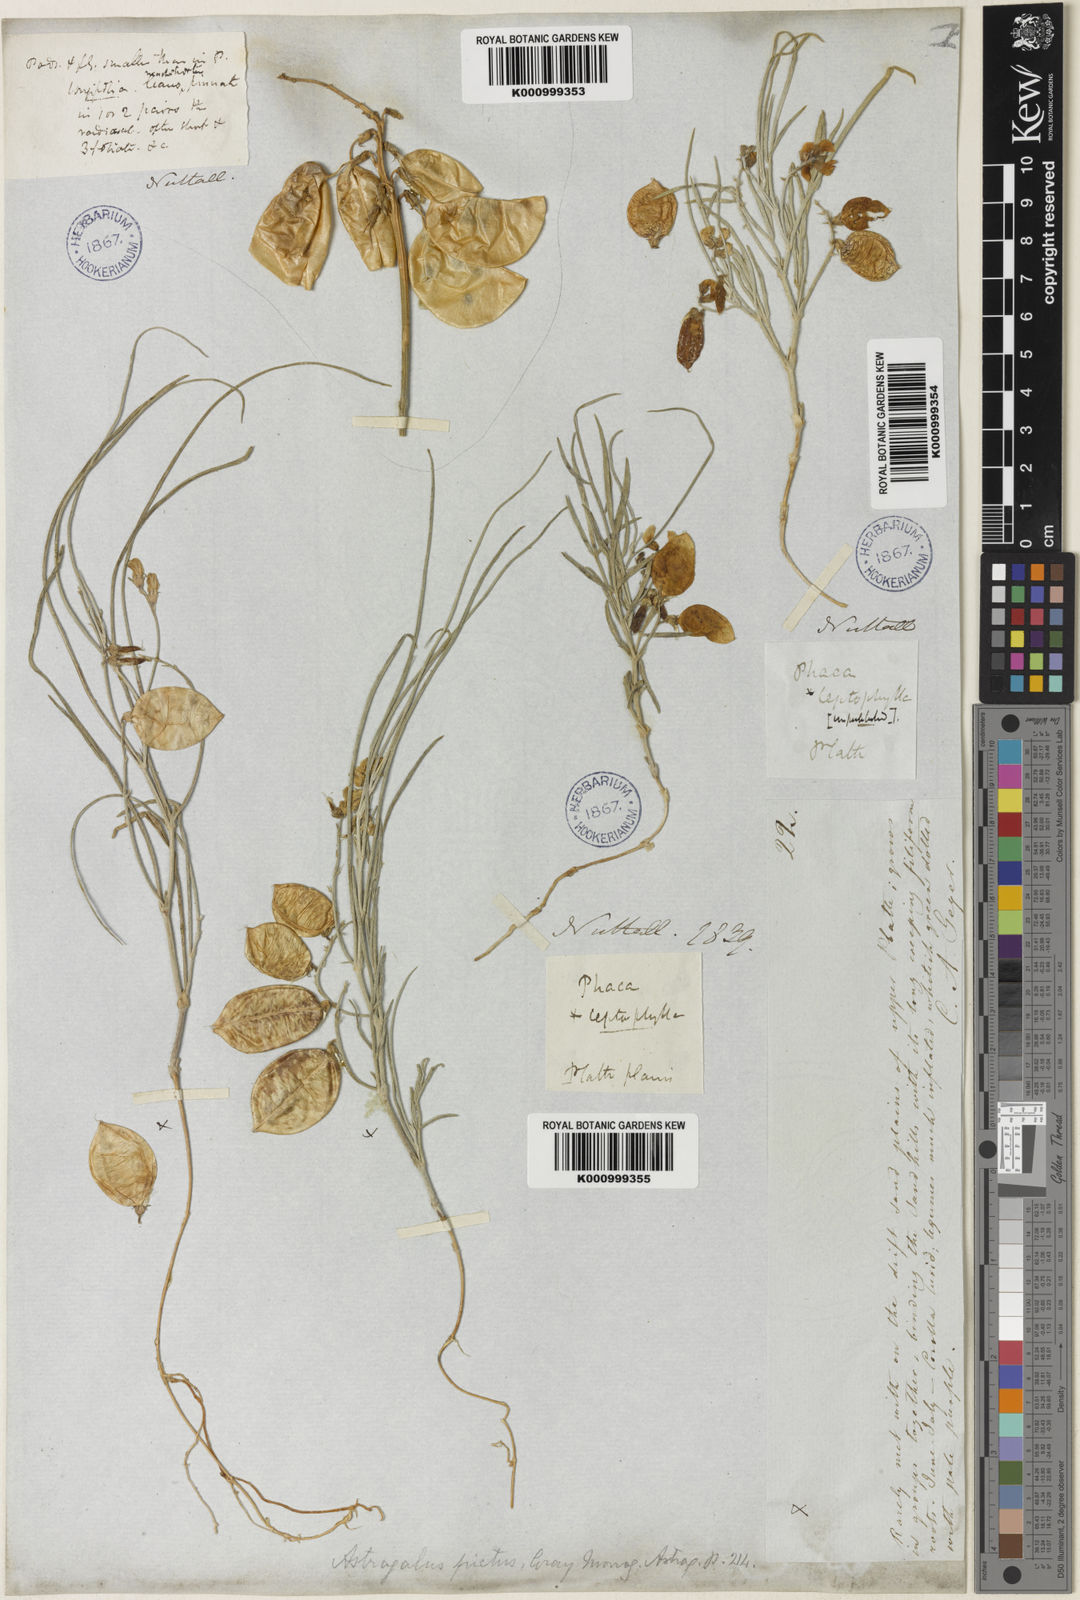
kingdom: Plantae
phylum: Tracheophyta
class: Magnoliopsida
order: Fabales
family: Fabaceae
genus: Astragalus
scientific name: Astragalus ceramicus
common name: Painted milk-vetch
